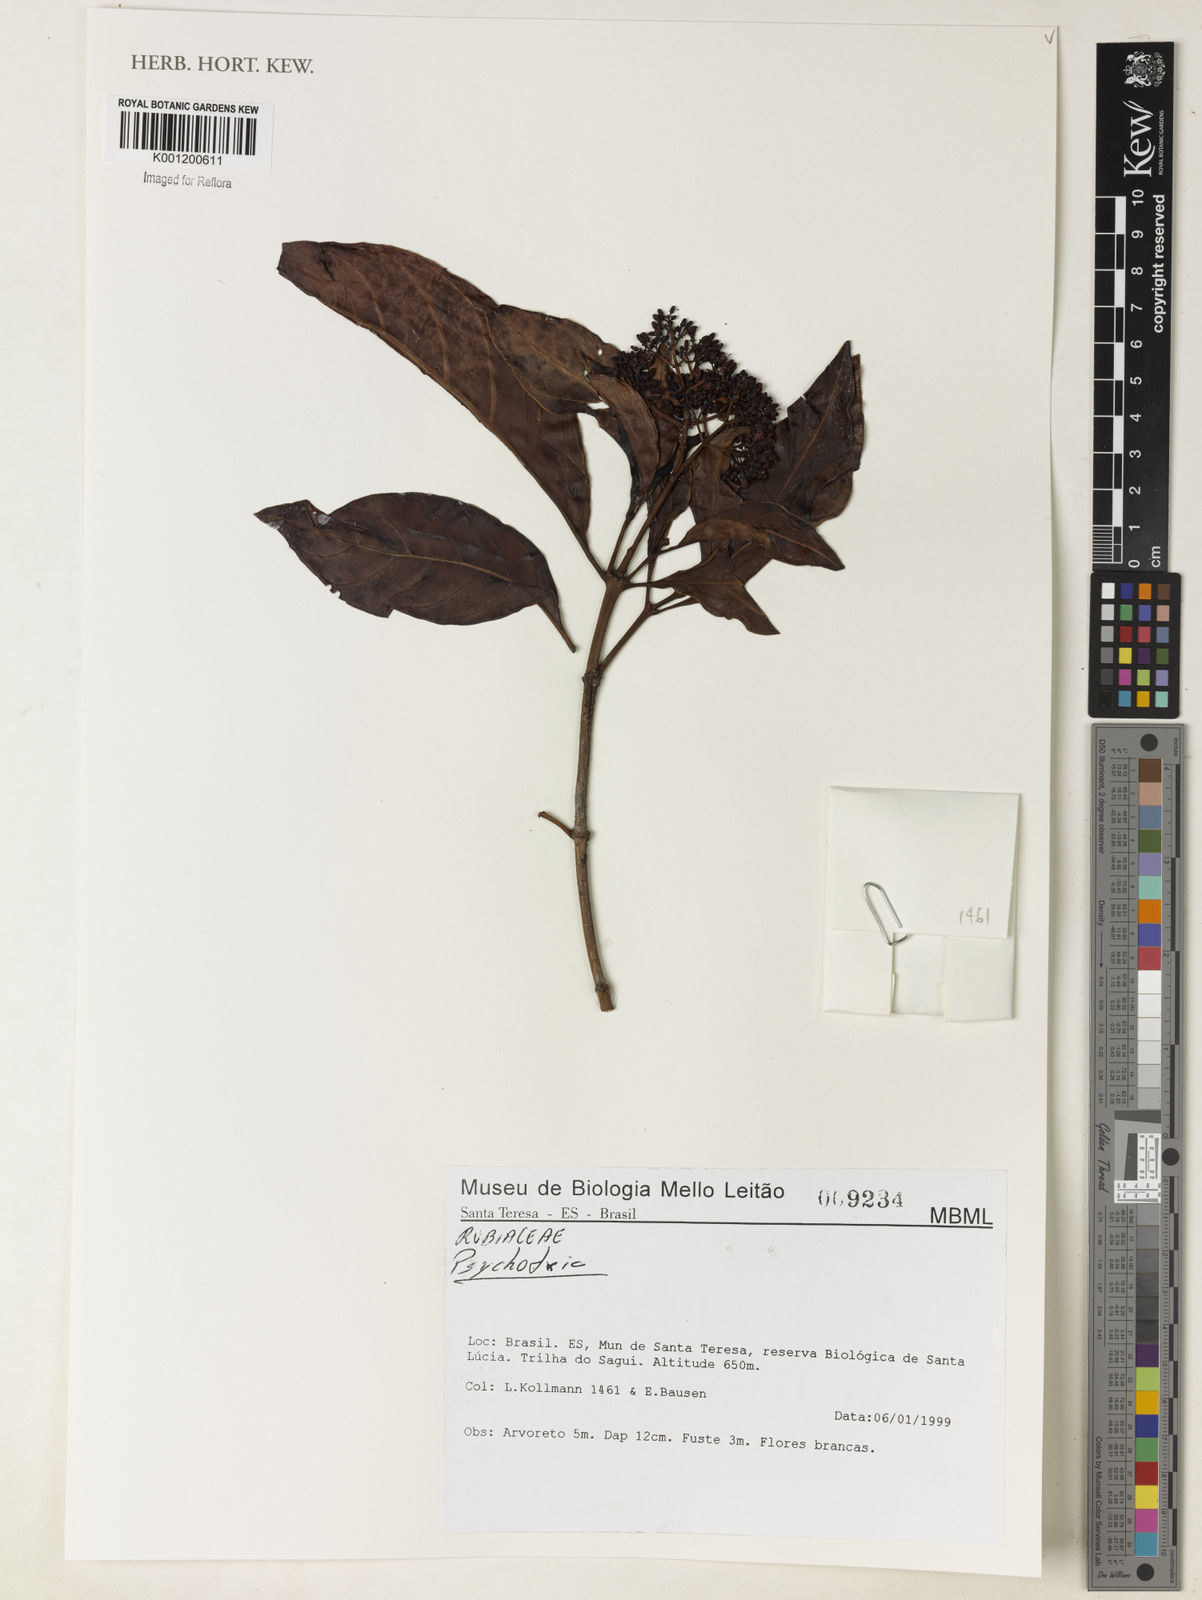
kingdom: Plantae
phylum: Tracheophyta
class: Magnoliopsida
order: Gentianales
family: Rubiaceae
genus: Psychotria
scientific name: Psychotria
